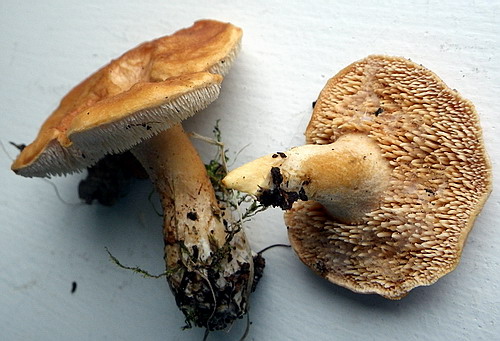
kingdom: Fungi
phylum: Basidiomycota
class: Agaricomycetes
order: Cantharellales
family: Hydnaceae
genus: Hydnum
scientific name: Hydnum rufescens
